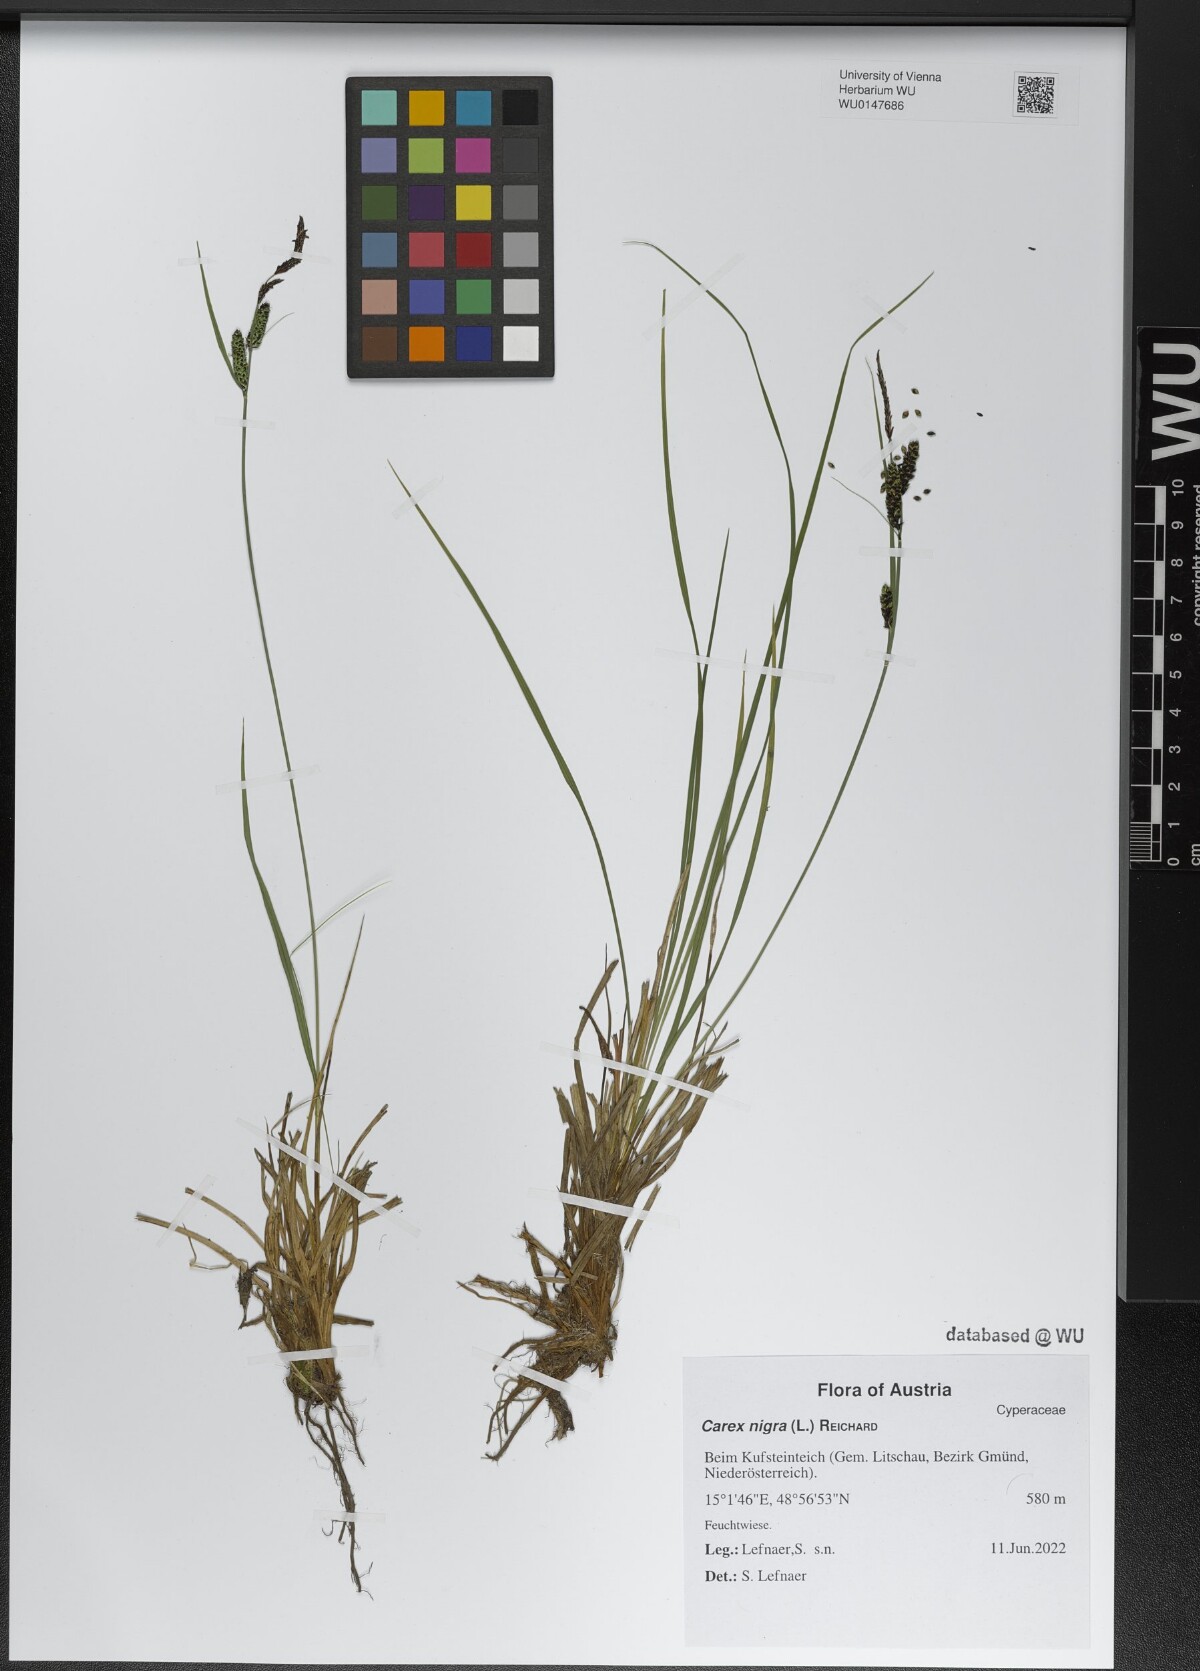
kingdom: Plantae
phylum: Tracheophyta
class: Liliopsida
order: Poales
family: Cyperaceae
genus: Carex
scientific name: Carex nigra
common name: Common sedge
